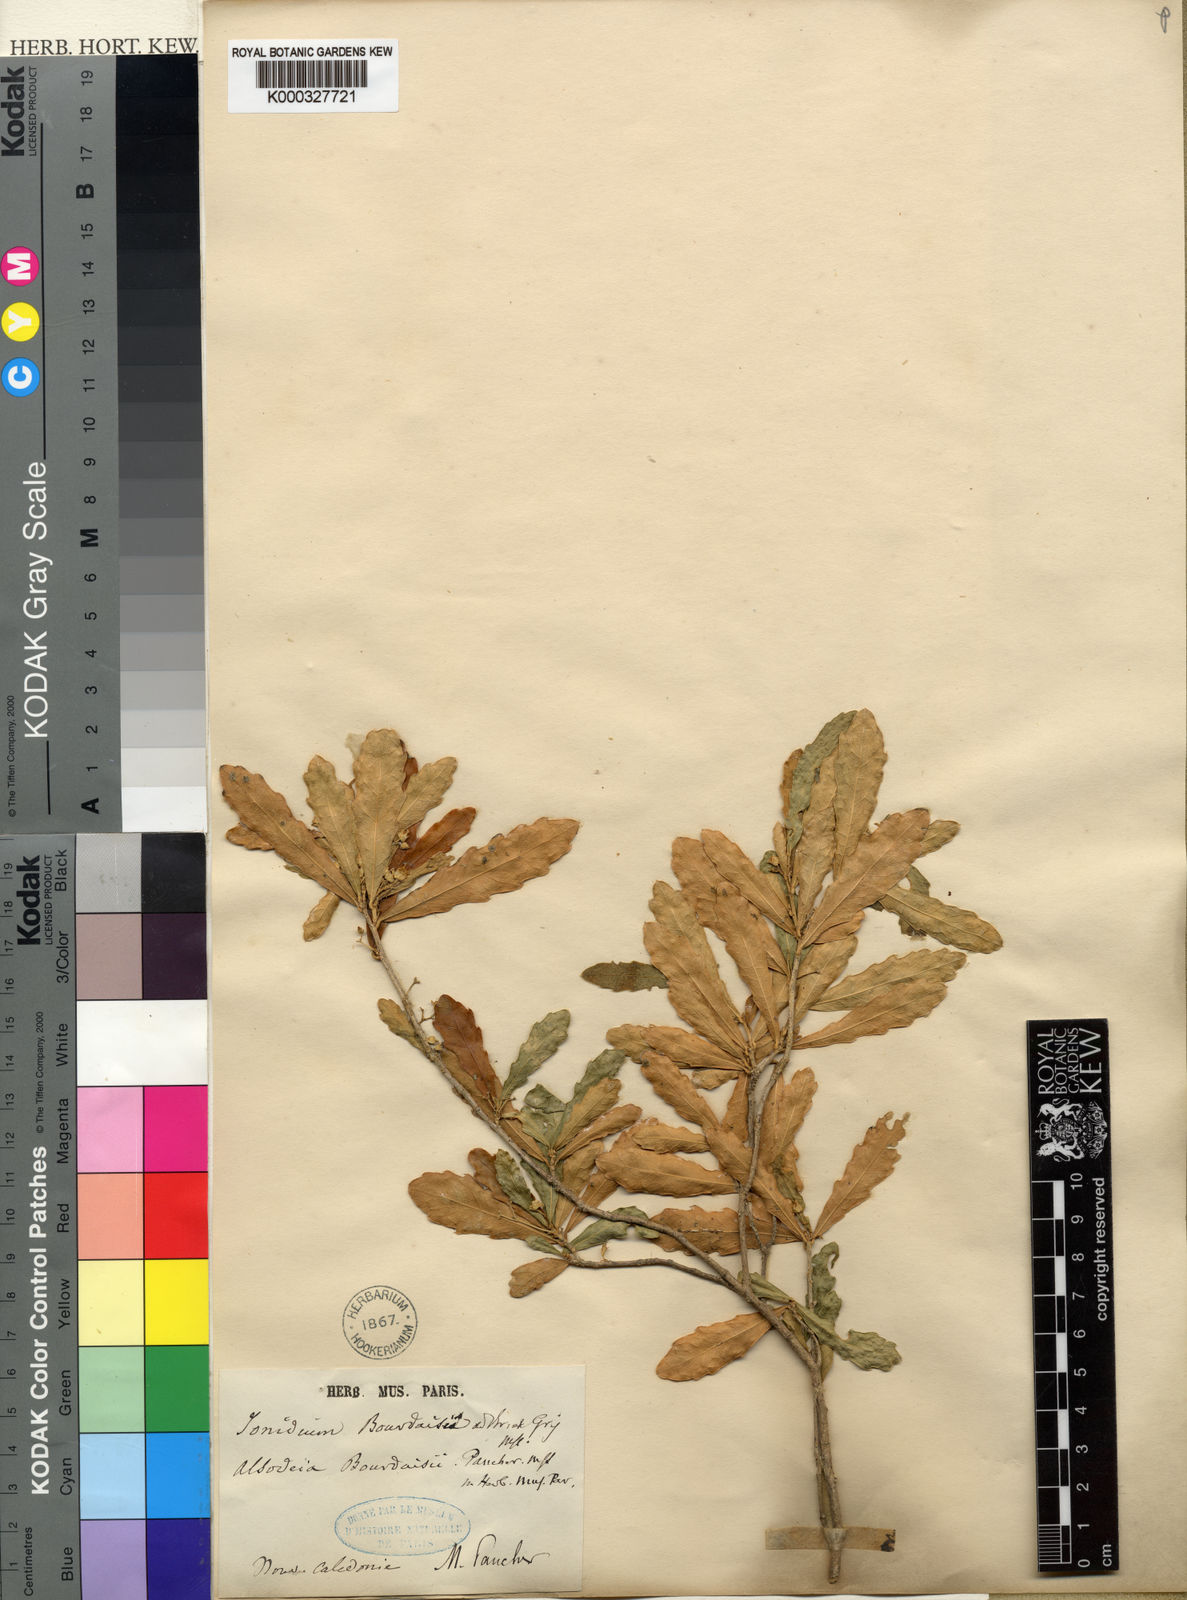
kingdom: Plantae
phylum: Tracheophyta
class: Magnoliopsida
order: Malpighiales
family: Violaceae
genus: Pigea
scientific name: Pigea caledonica
